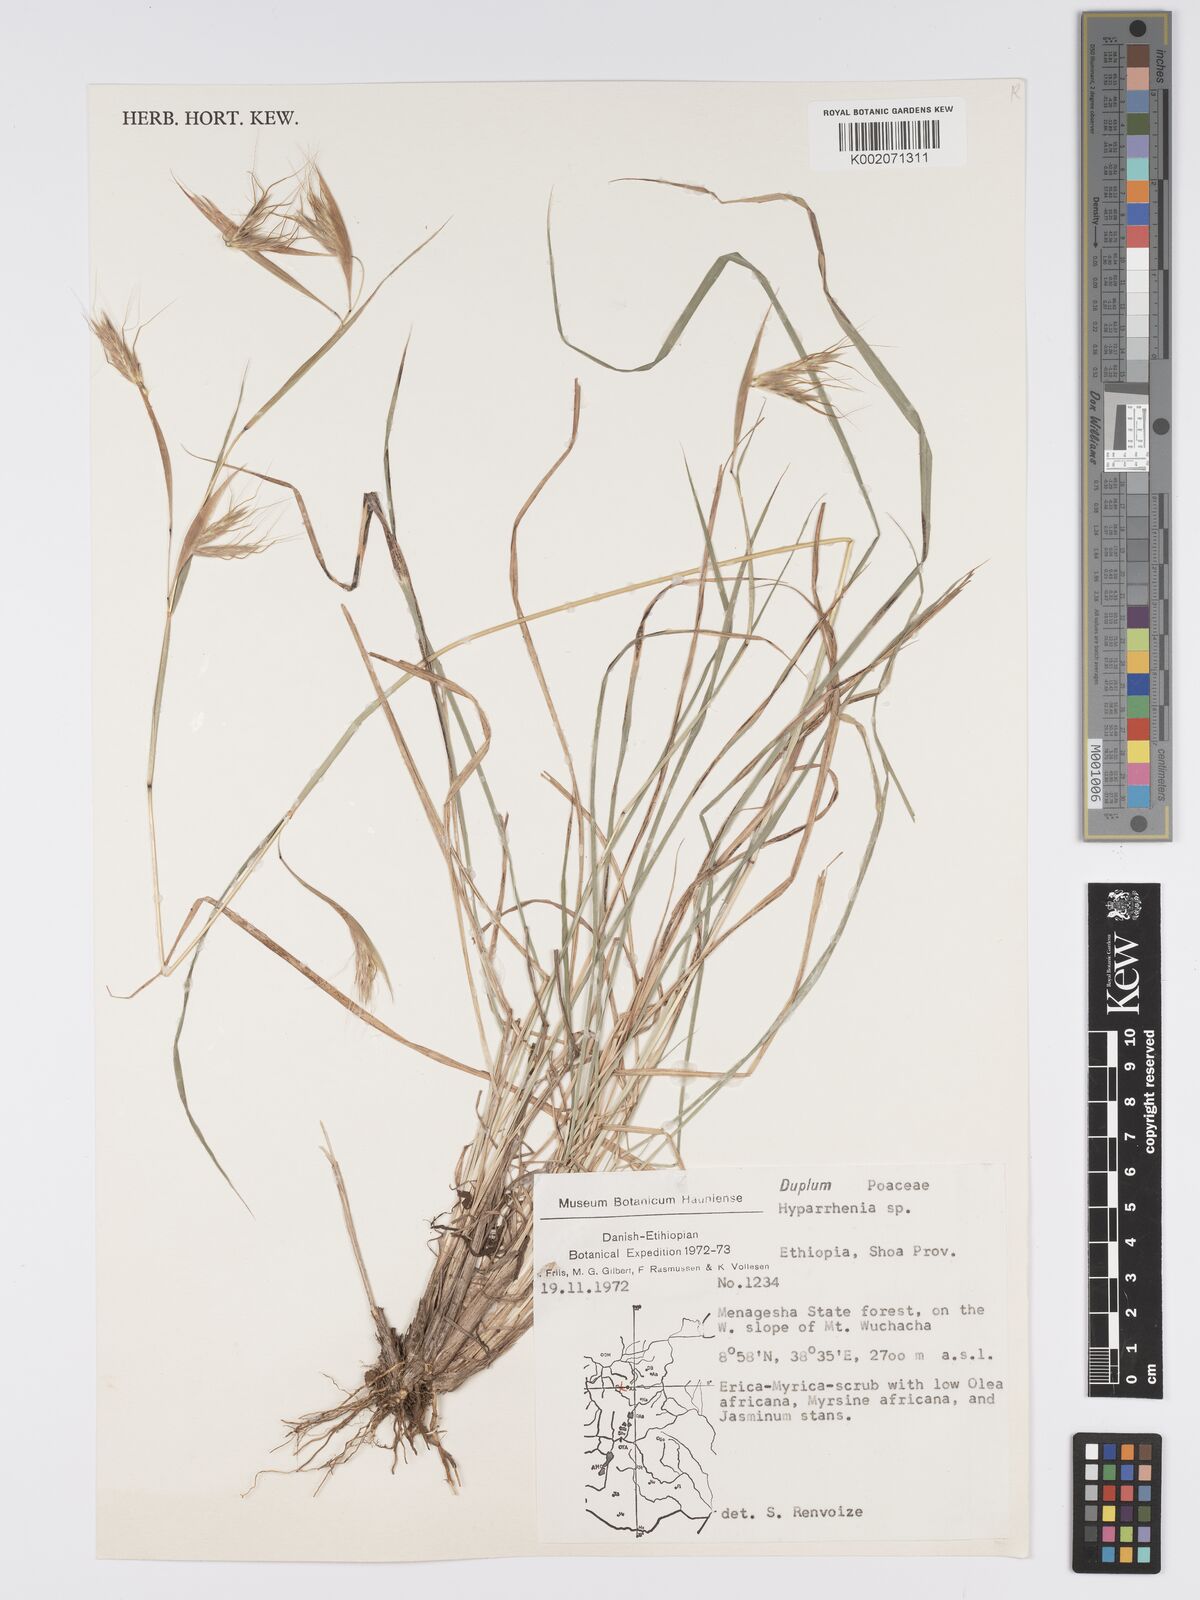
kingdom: Plantae
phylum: Tracheophyta
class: Liliopsida
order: Poales
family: Poaceae
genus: Hyparrhenia
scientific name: Hyparrhenia
